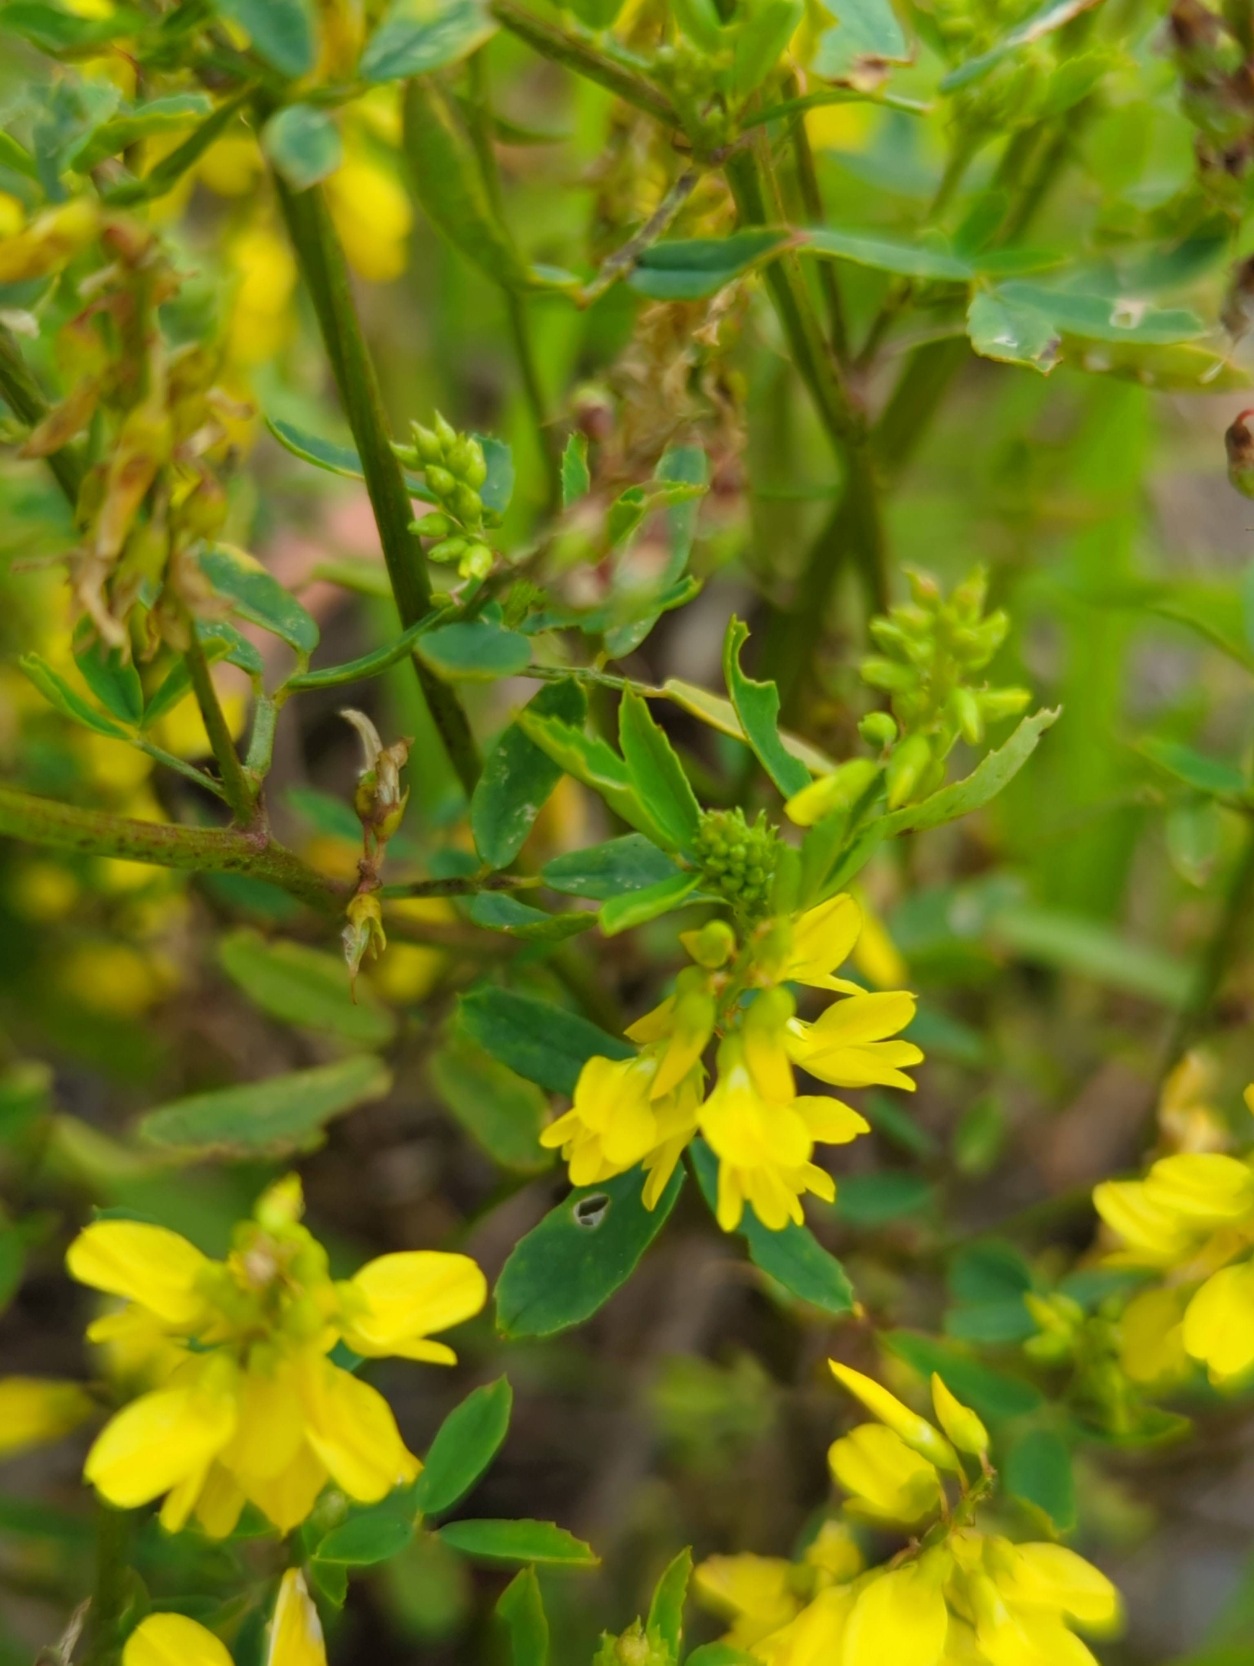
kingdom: Plantae
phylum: Tracheophyta
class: Magnoliopsida
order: Fabales
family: Fabaceae
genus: Melilotus
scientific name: Melilotus officinalis
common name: Mark-stenkløver
